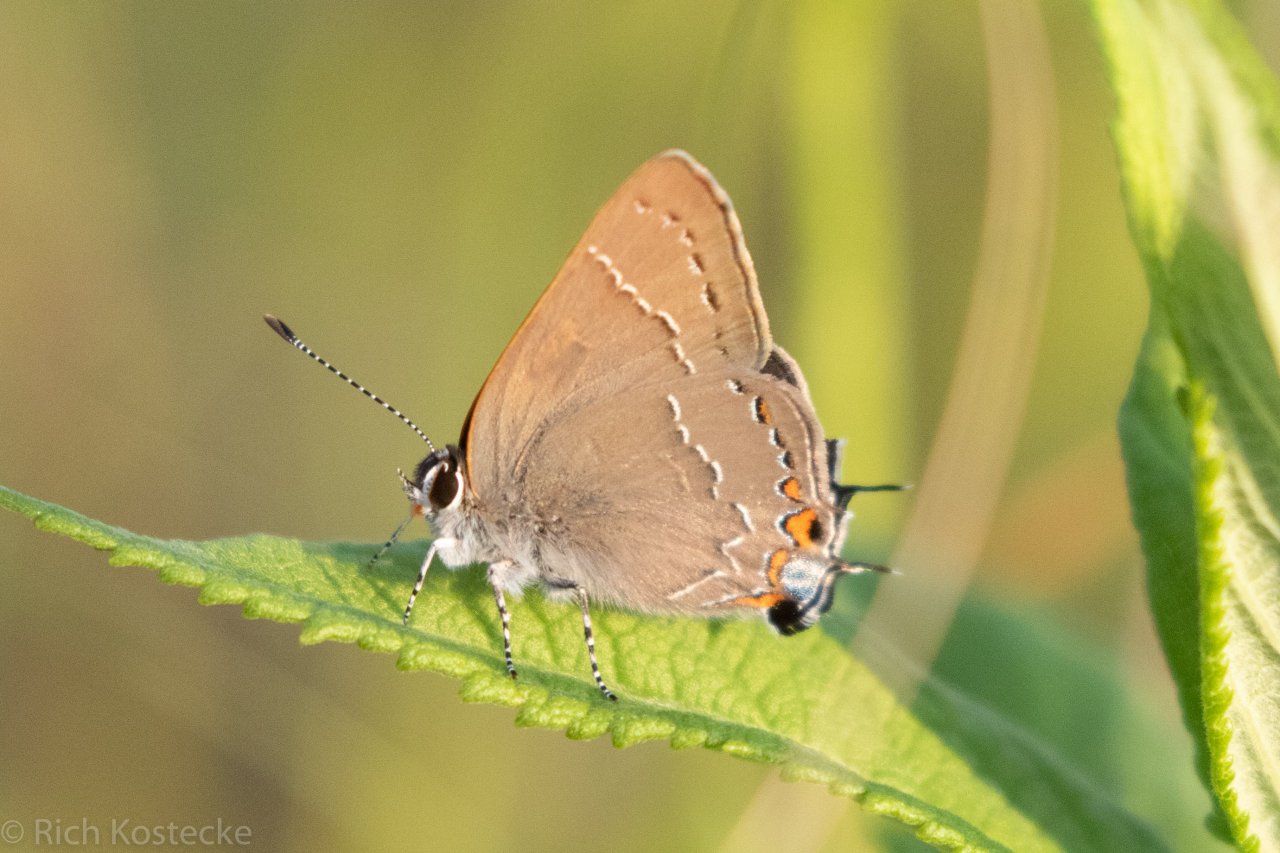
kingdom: Animalia
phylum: Arthropoda
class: Insecta
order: Lepidoptera
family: Lycaenidae
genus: Fixsenia
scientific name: Fixsenia favonius
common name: Oak Hairstreak
